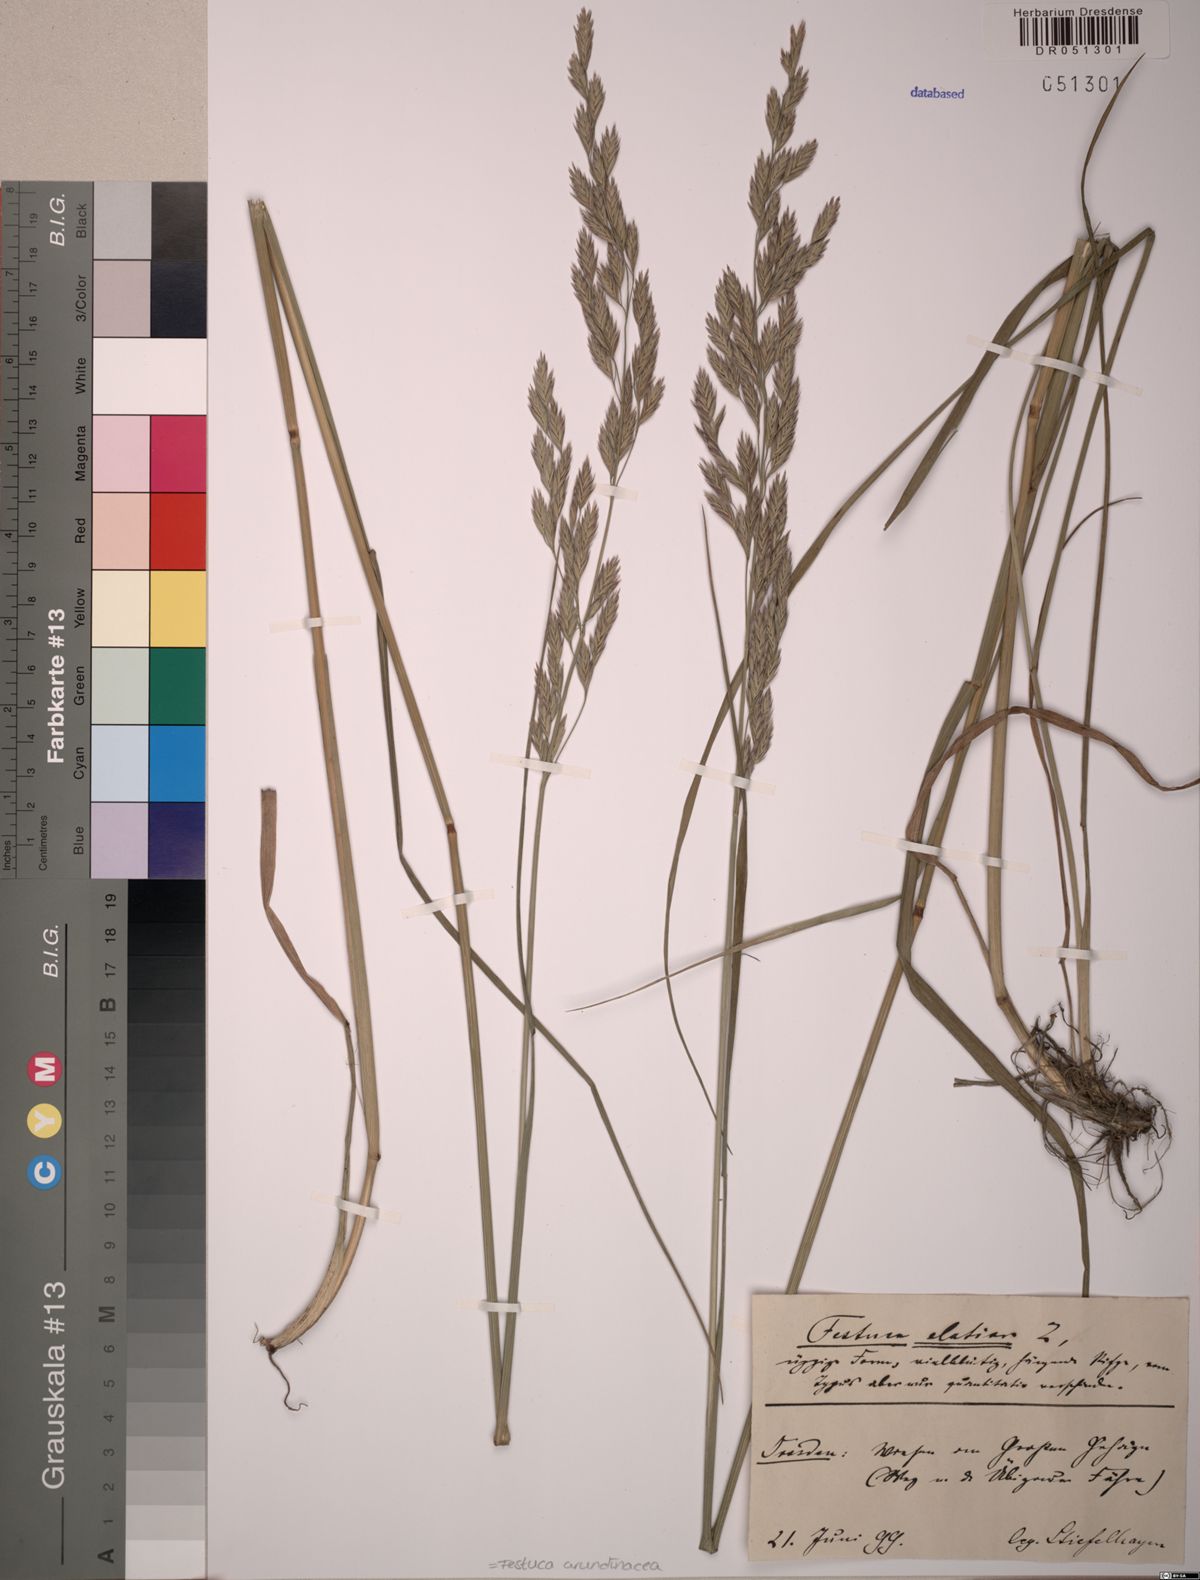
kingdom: Plantae
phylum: Tracheophyta
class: Liliopsida
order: Poales
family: Poaceae
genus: Lolium
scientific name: Lolium arundinaceum
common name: Reed fescue
